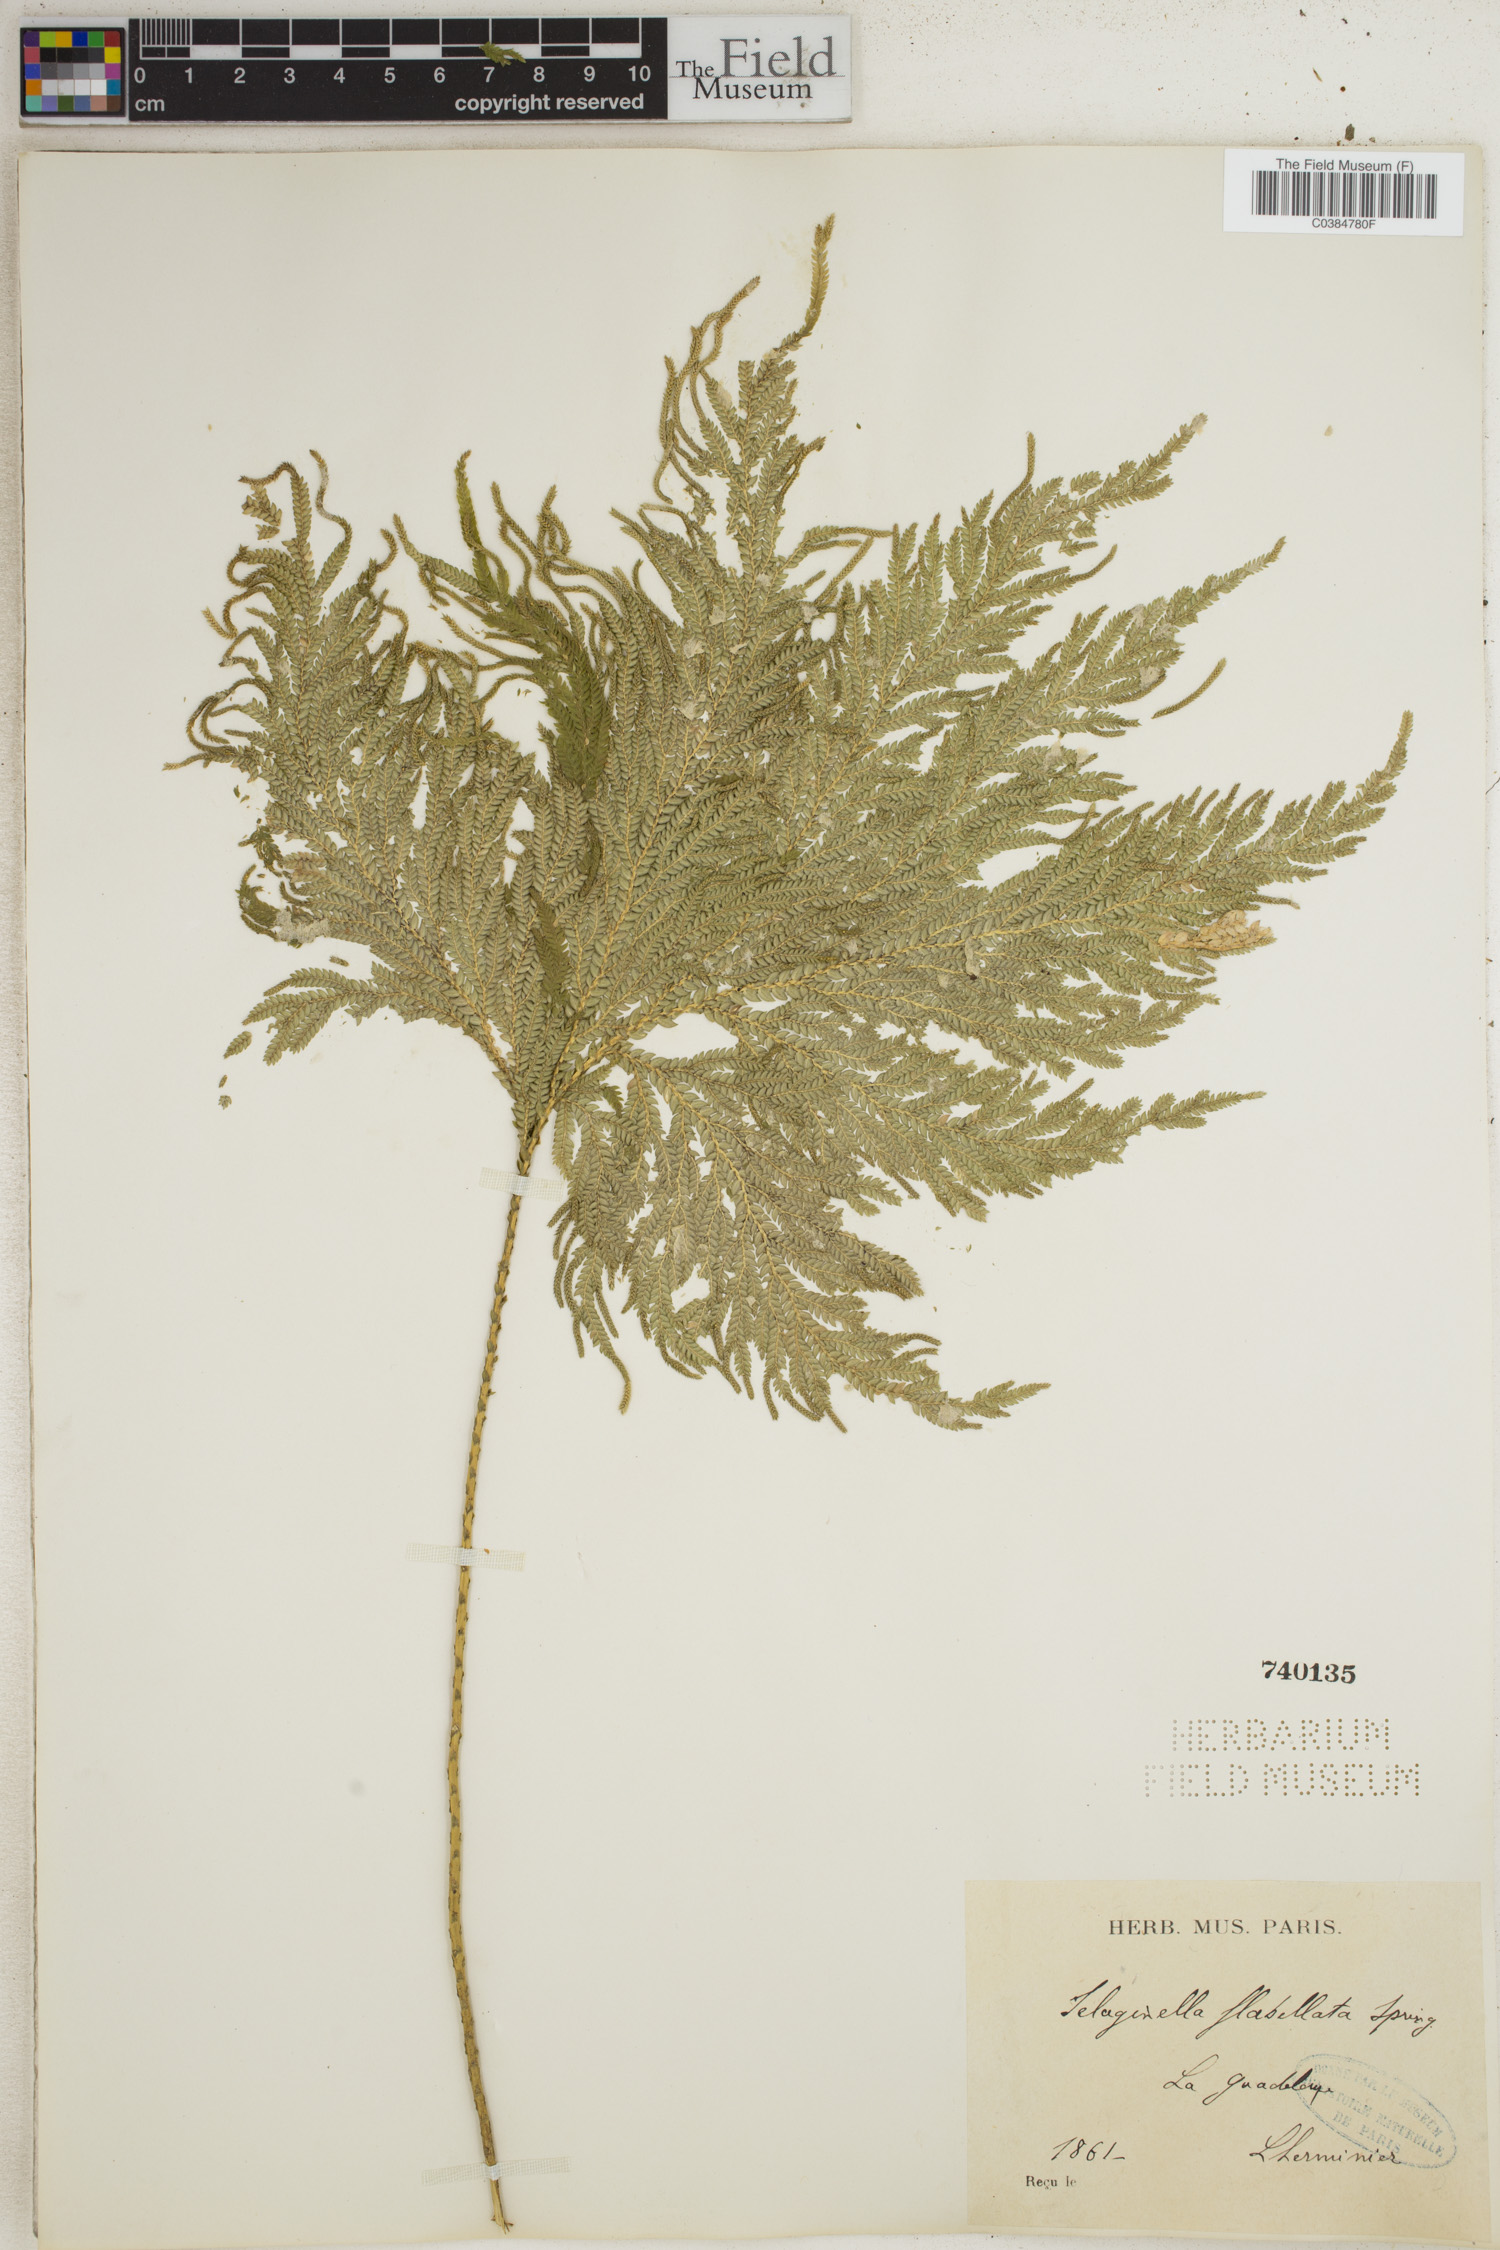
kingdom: Plantae
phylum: Tracheophyta
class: Lycopodiopsida
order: Selaginellales
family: Selaginellaceae
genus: Selaginella
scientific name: Selaginella flabellata
